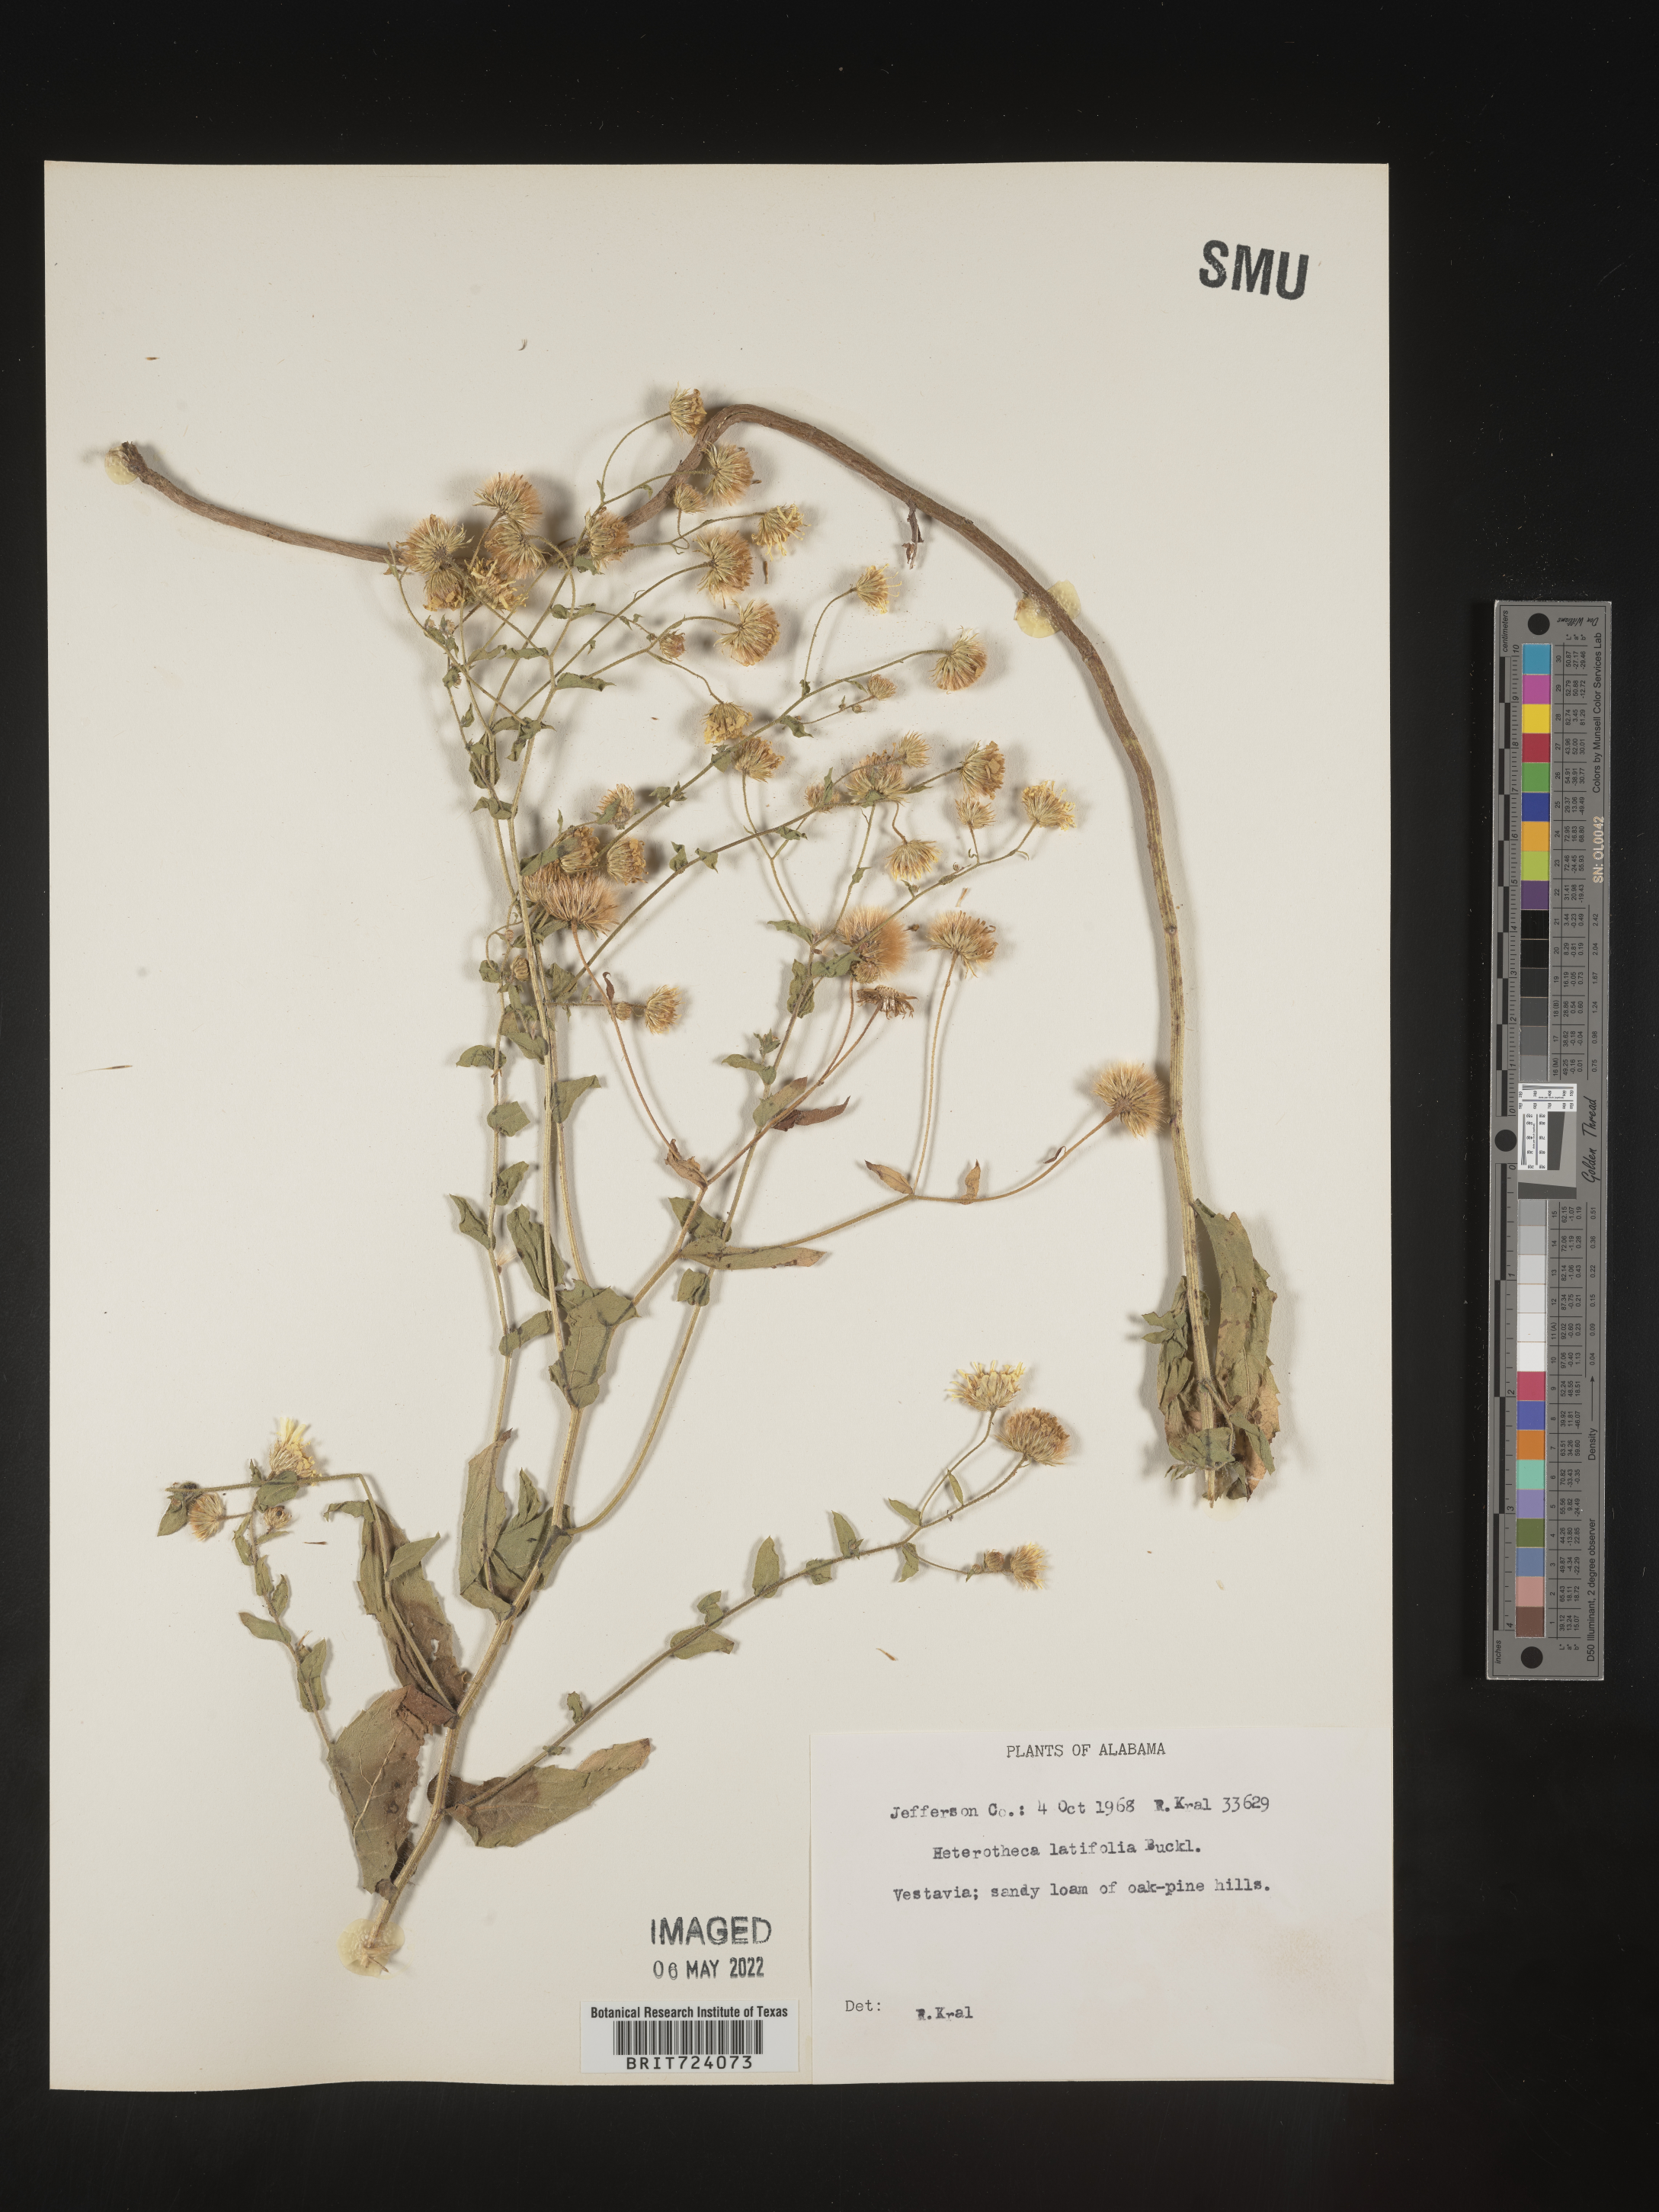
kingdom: Plantae
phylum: Tracheophyta
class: Magnoliopsida
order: Asterales
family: Asteraceae
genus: Heterotheca
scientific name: Heterotheca subaxillaris
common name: Camphorweed
